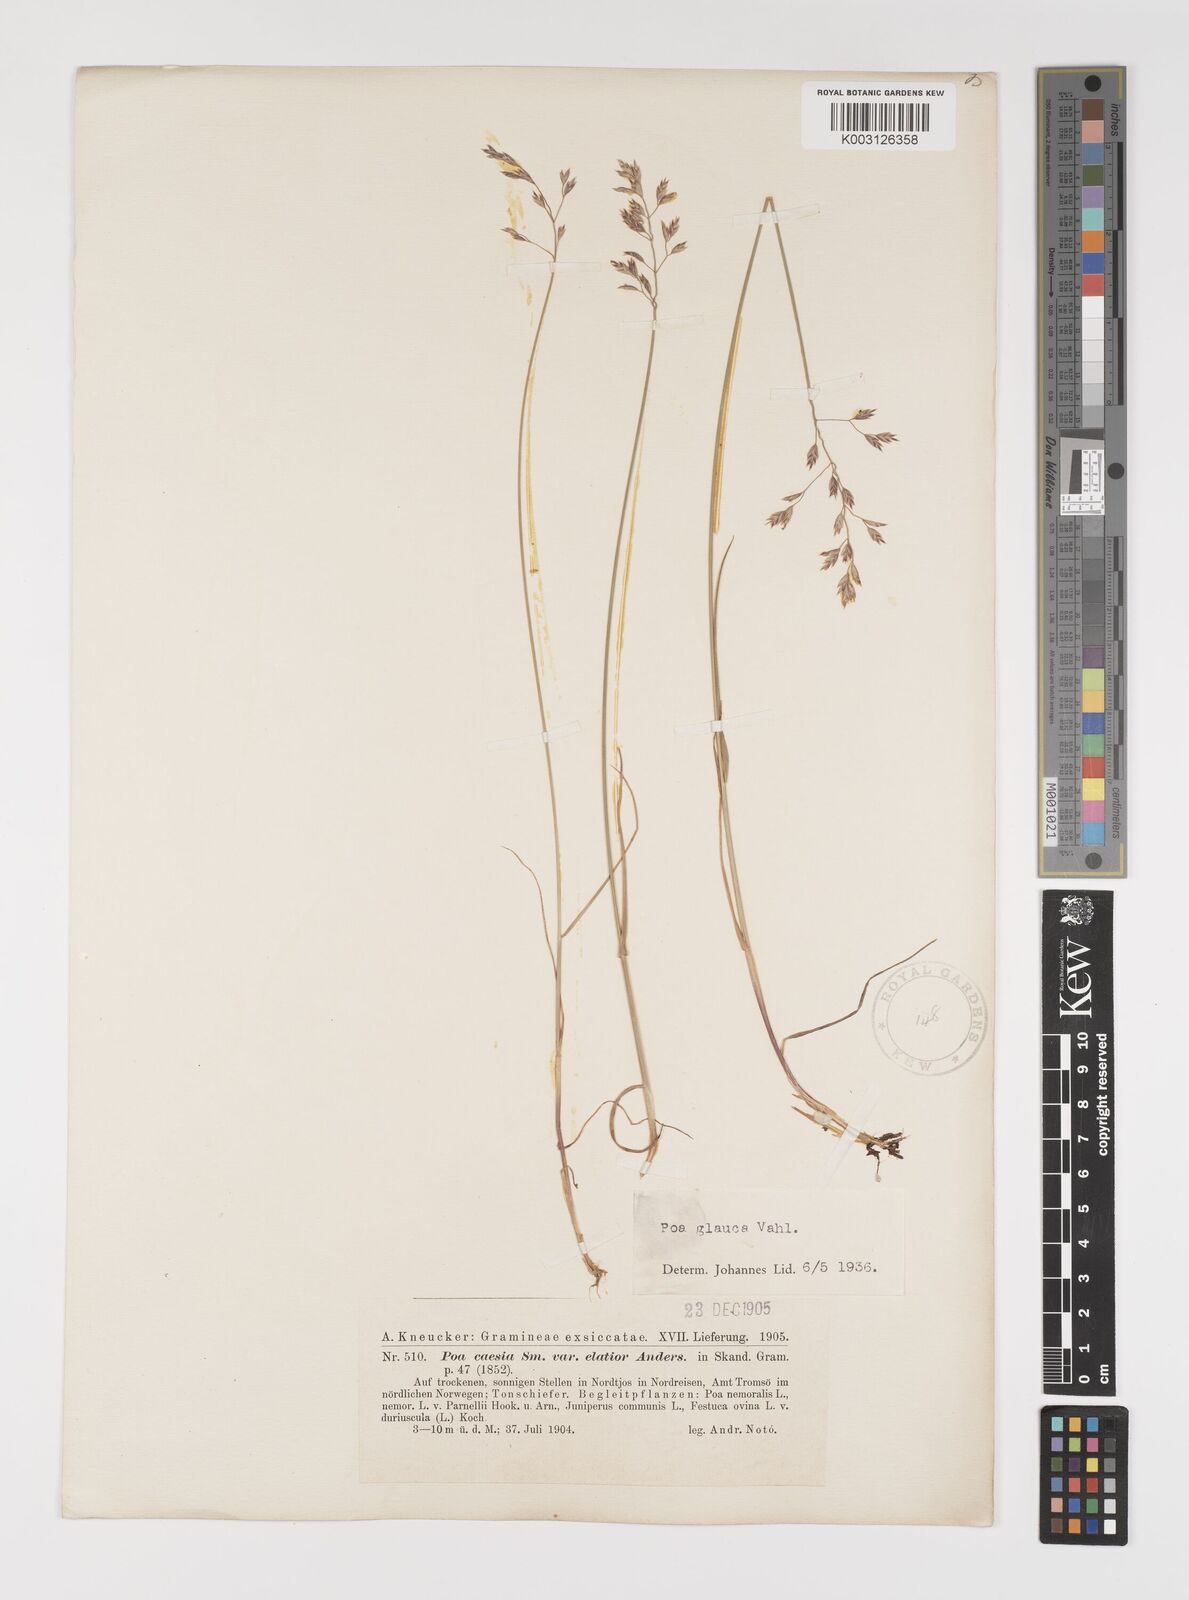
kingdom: Plantae
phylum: Tracheophyta
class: Liliopsida
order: Poales
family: Poaceae
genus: Poa
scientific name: Poa glauca
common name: Glaucous bluegrass
